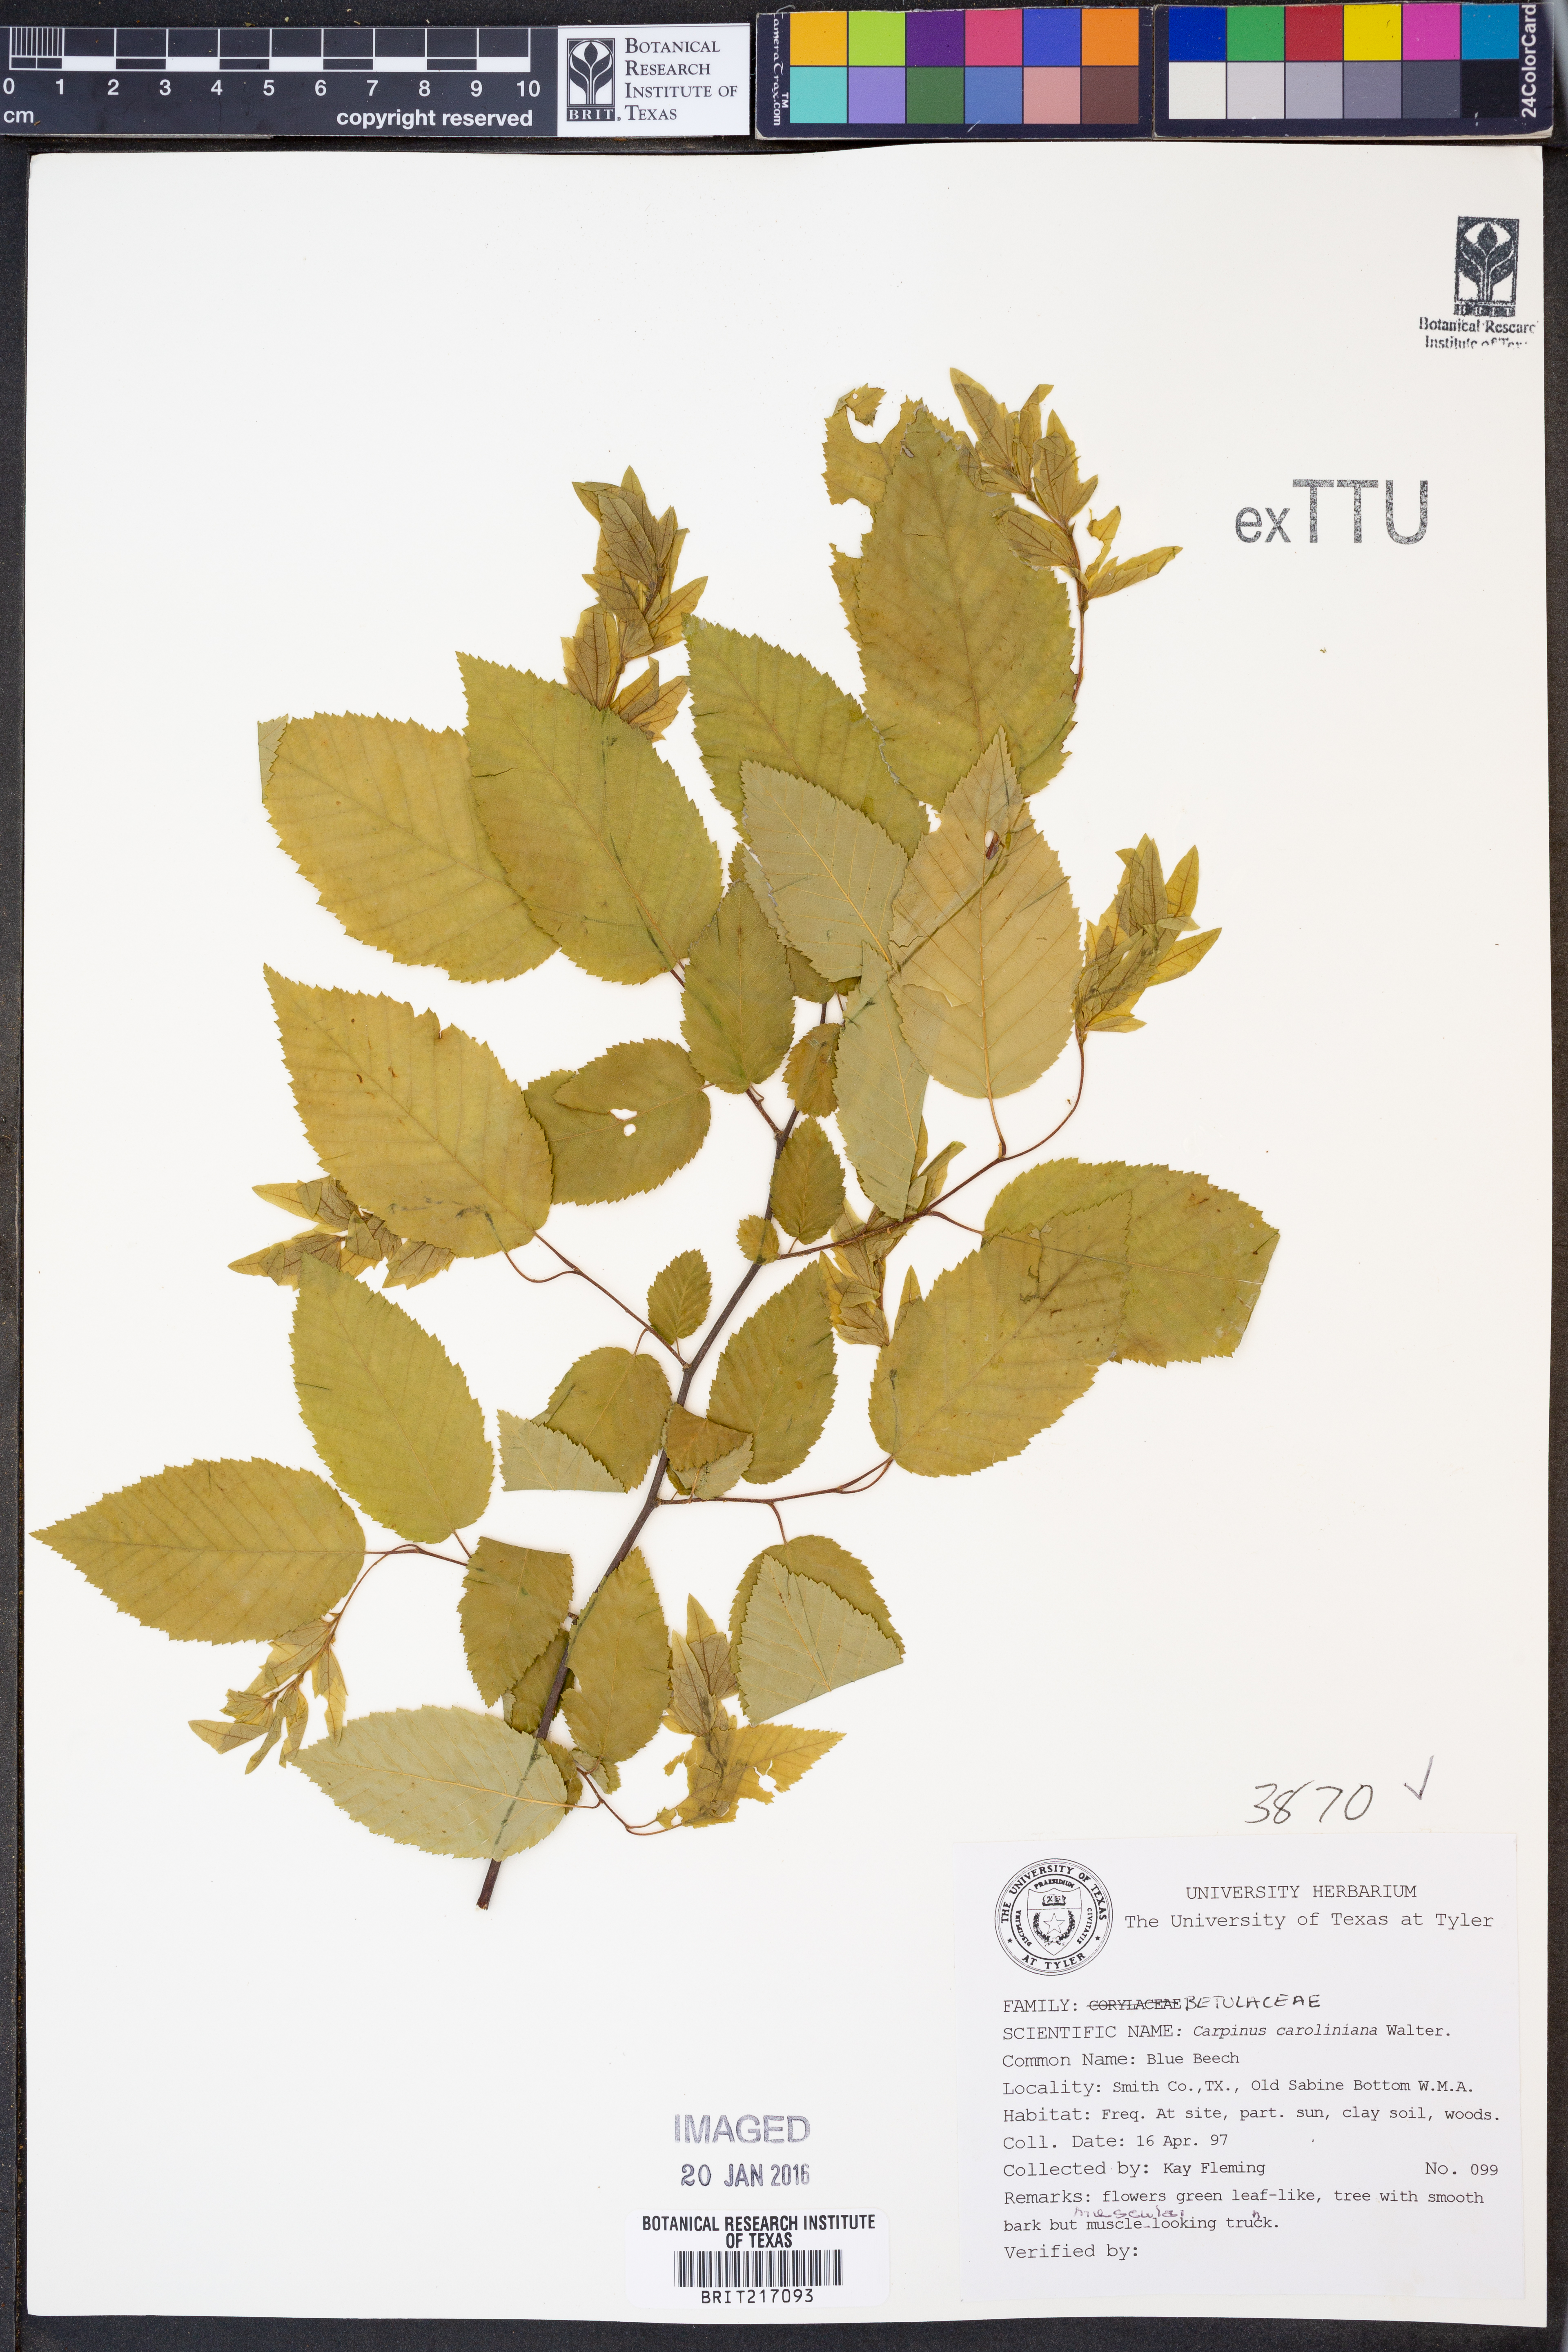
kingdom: Plantae
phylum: Tracheophyta
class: Magnoliopsida
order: Fagales
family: Betulaceae
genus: Carpinus
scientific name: Carpinus caroliniana
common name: American hornbeam
